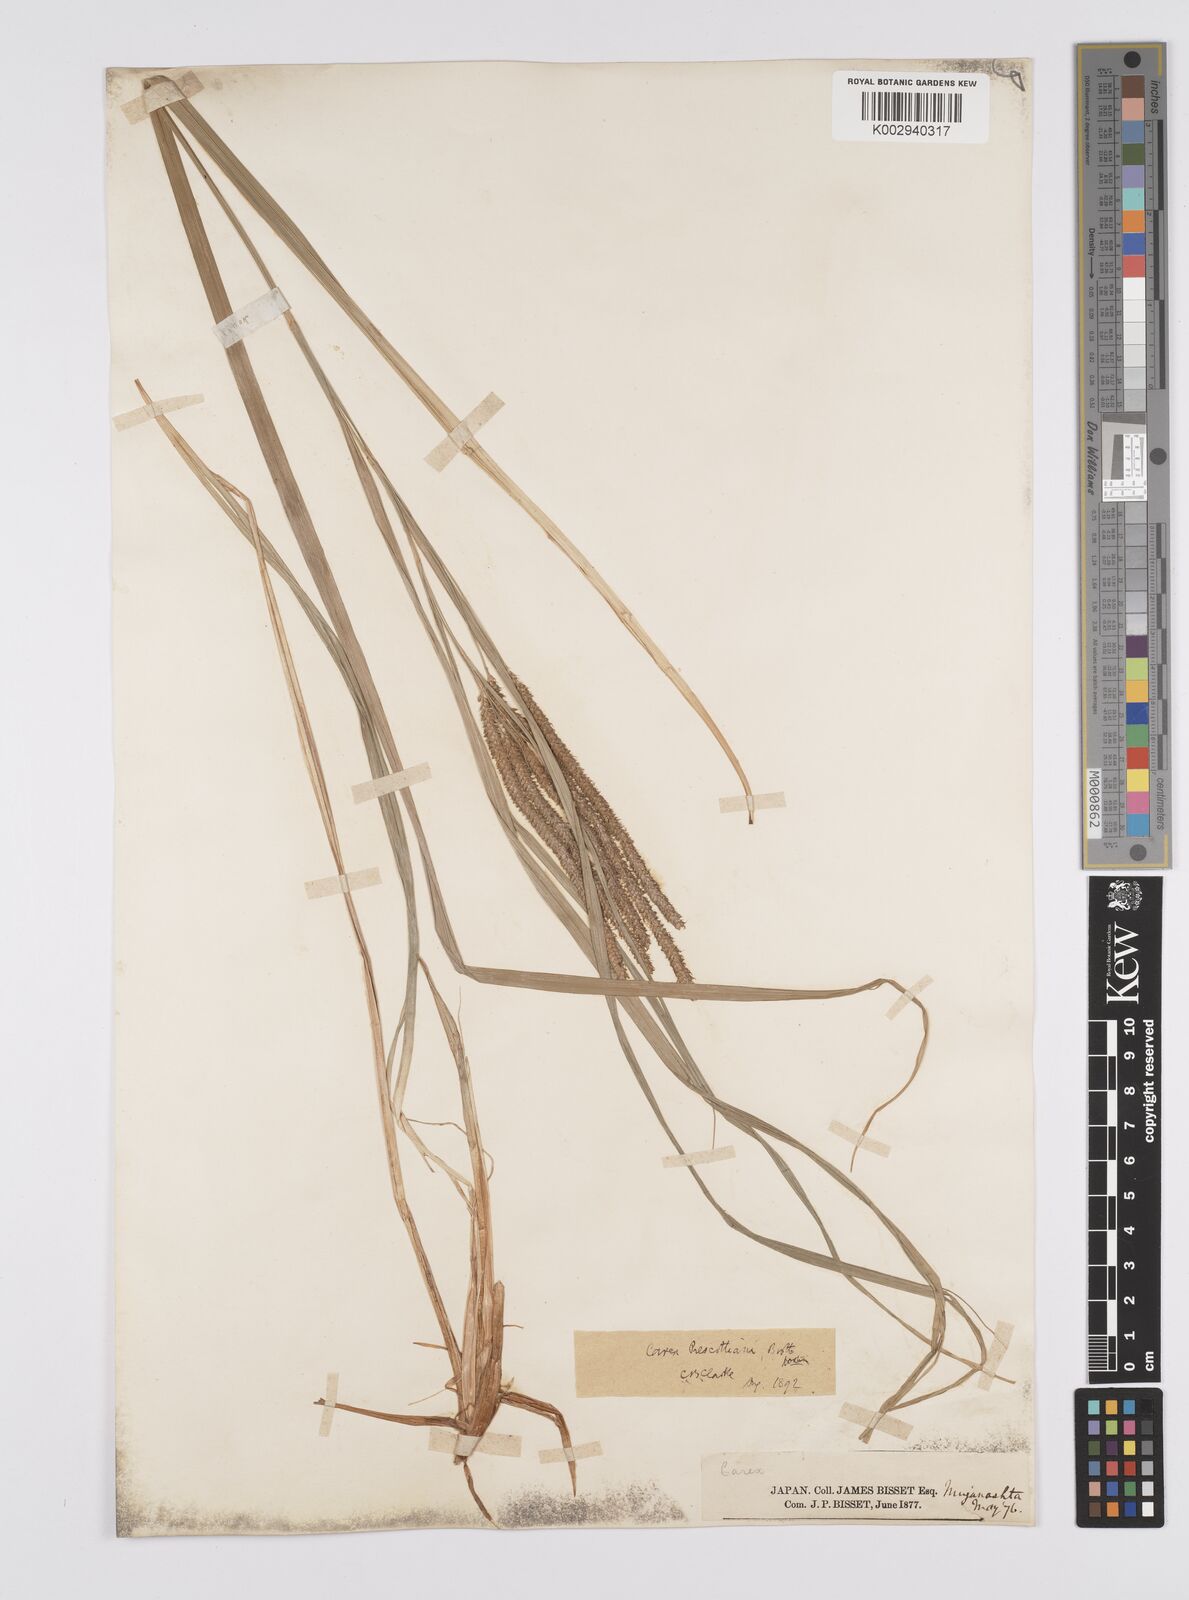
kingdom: Plantae
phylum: Tracheophyta
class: Liliopsida
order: Poales
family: Cyperaceae
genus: Carex
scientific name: Carex prescottiana
